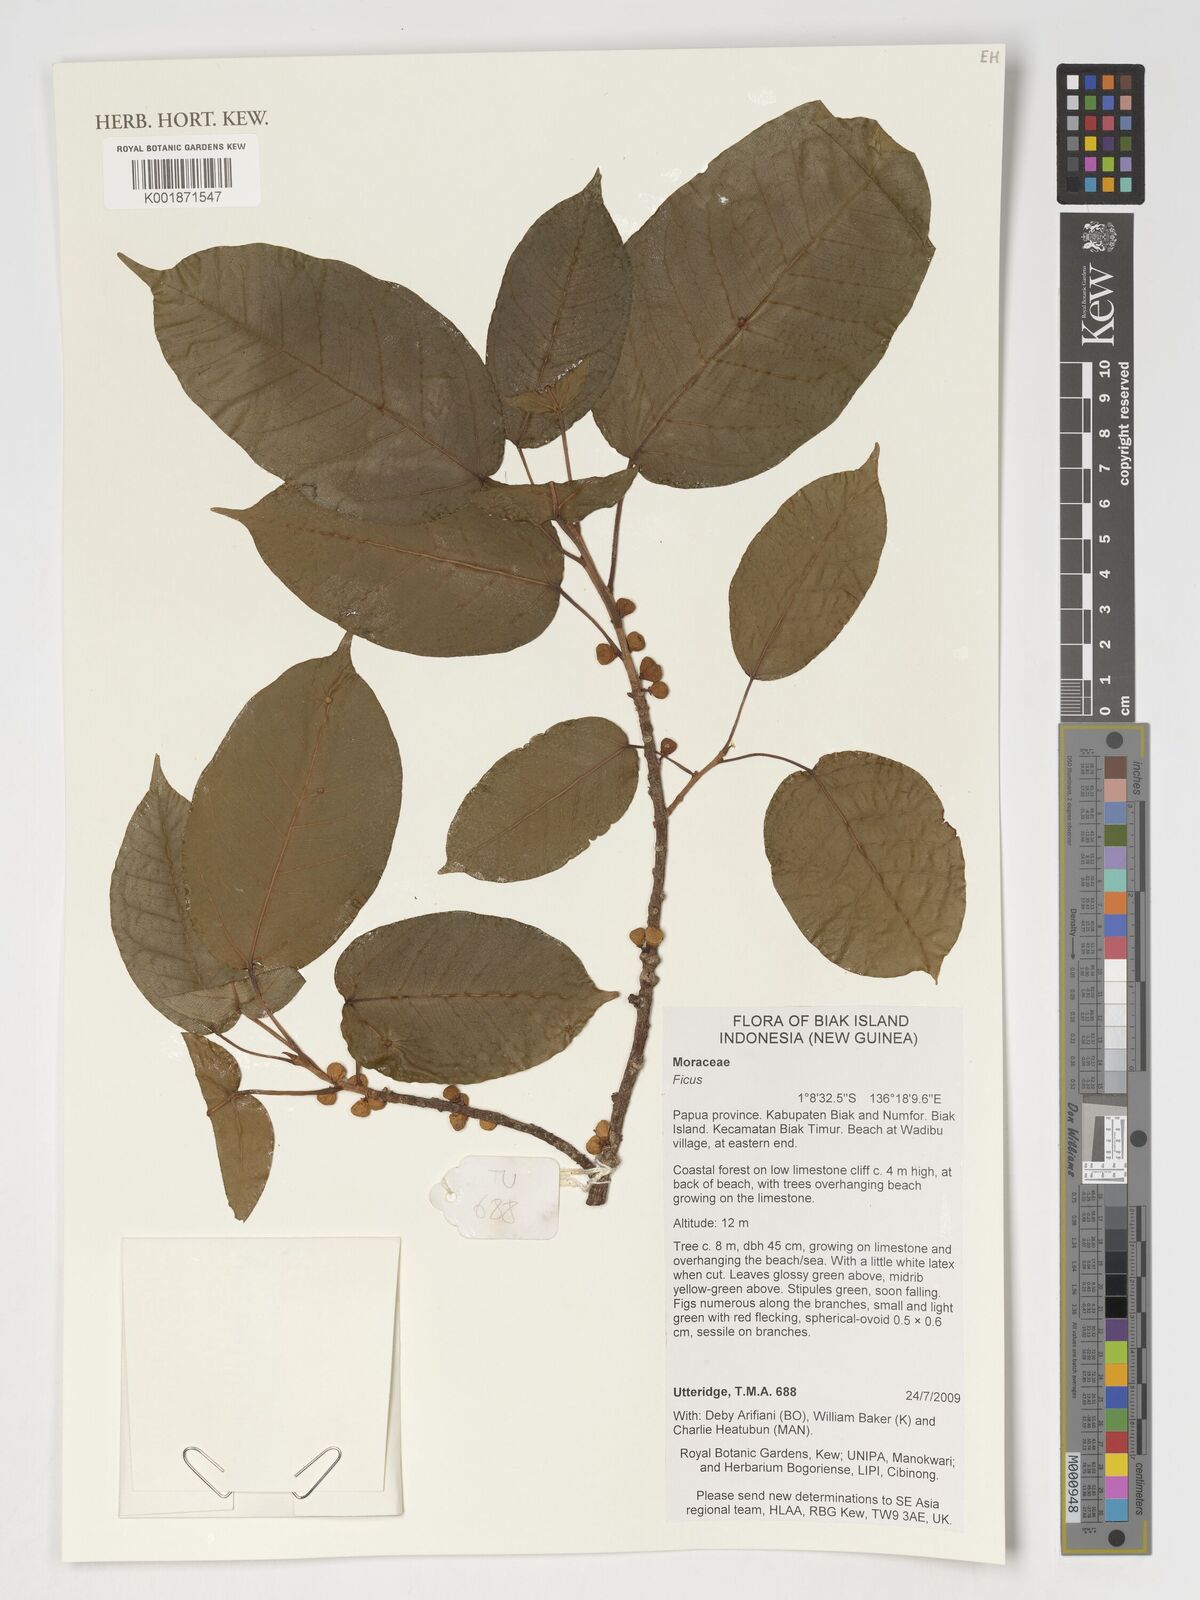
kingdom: Plantae
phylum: Tracheophyta
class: Magnoliopsida
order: Rosales
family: Moraceae
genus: Ficus
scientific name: Ficus
